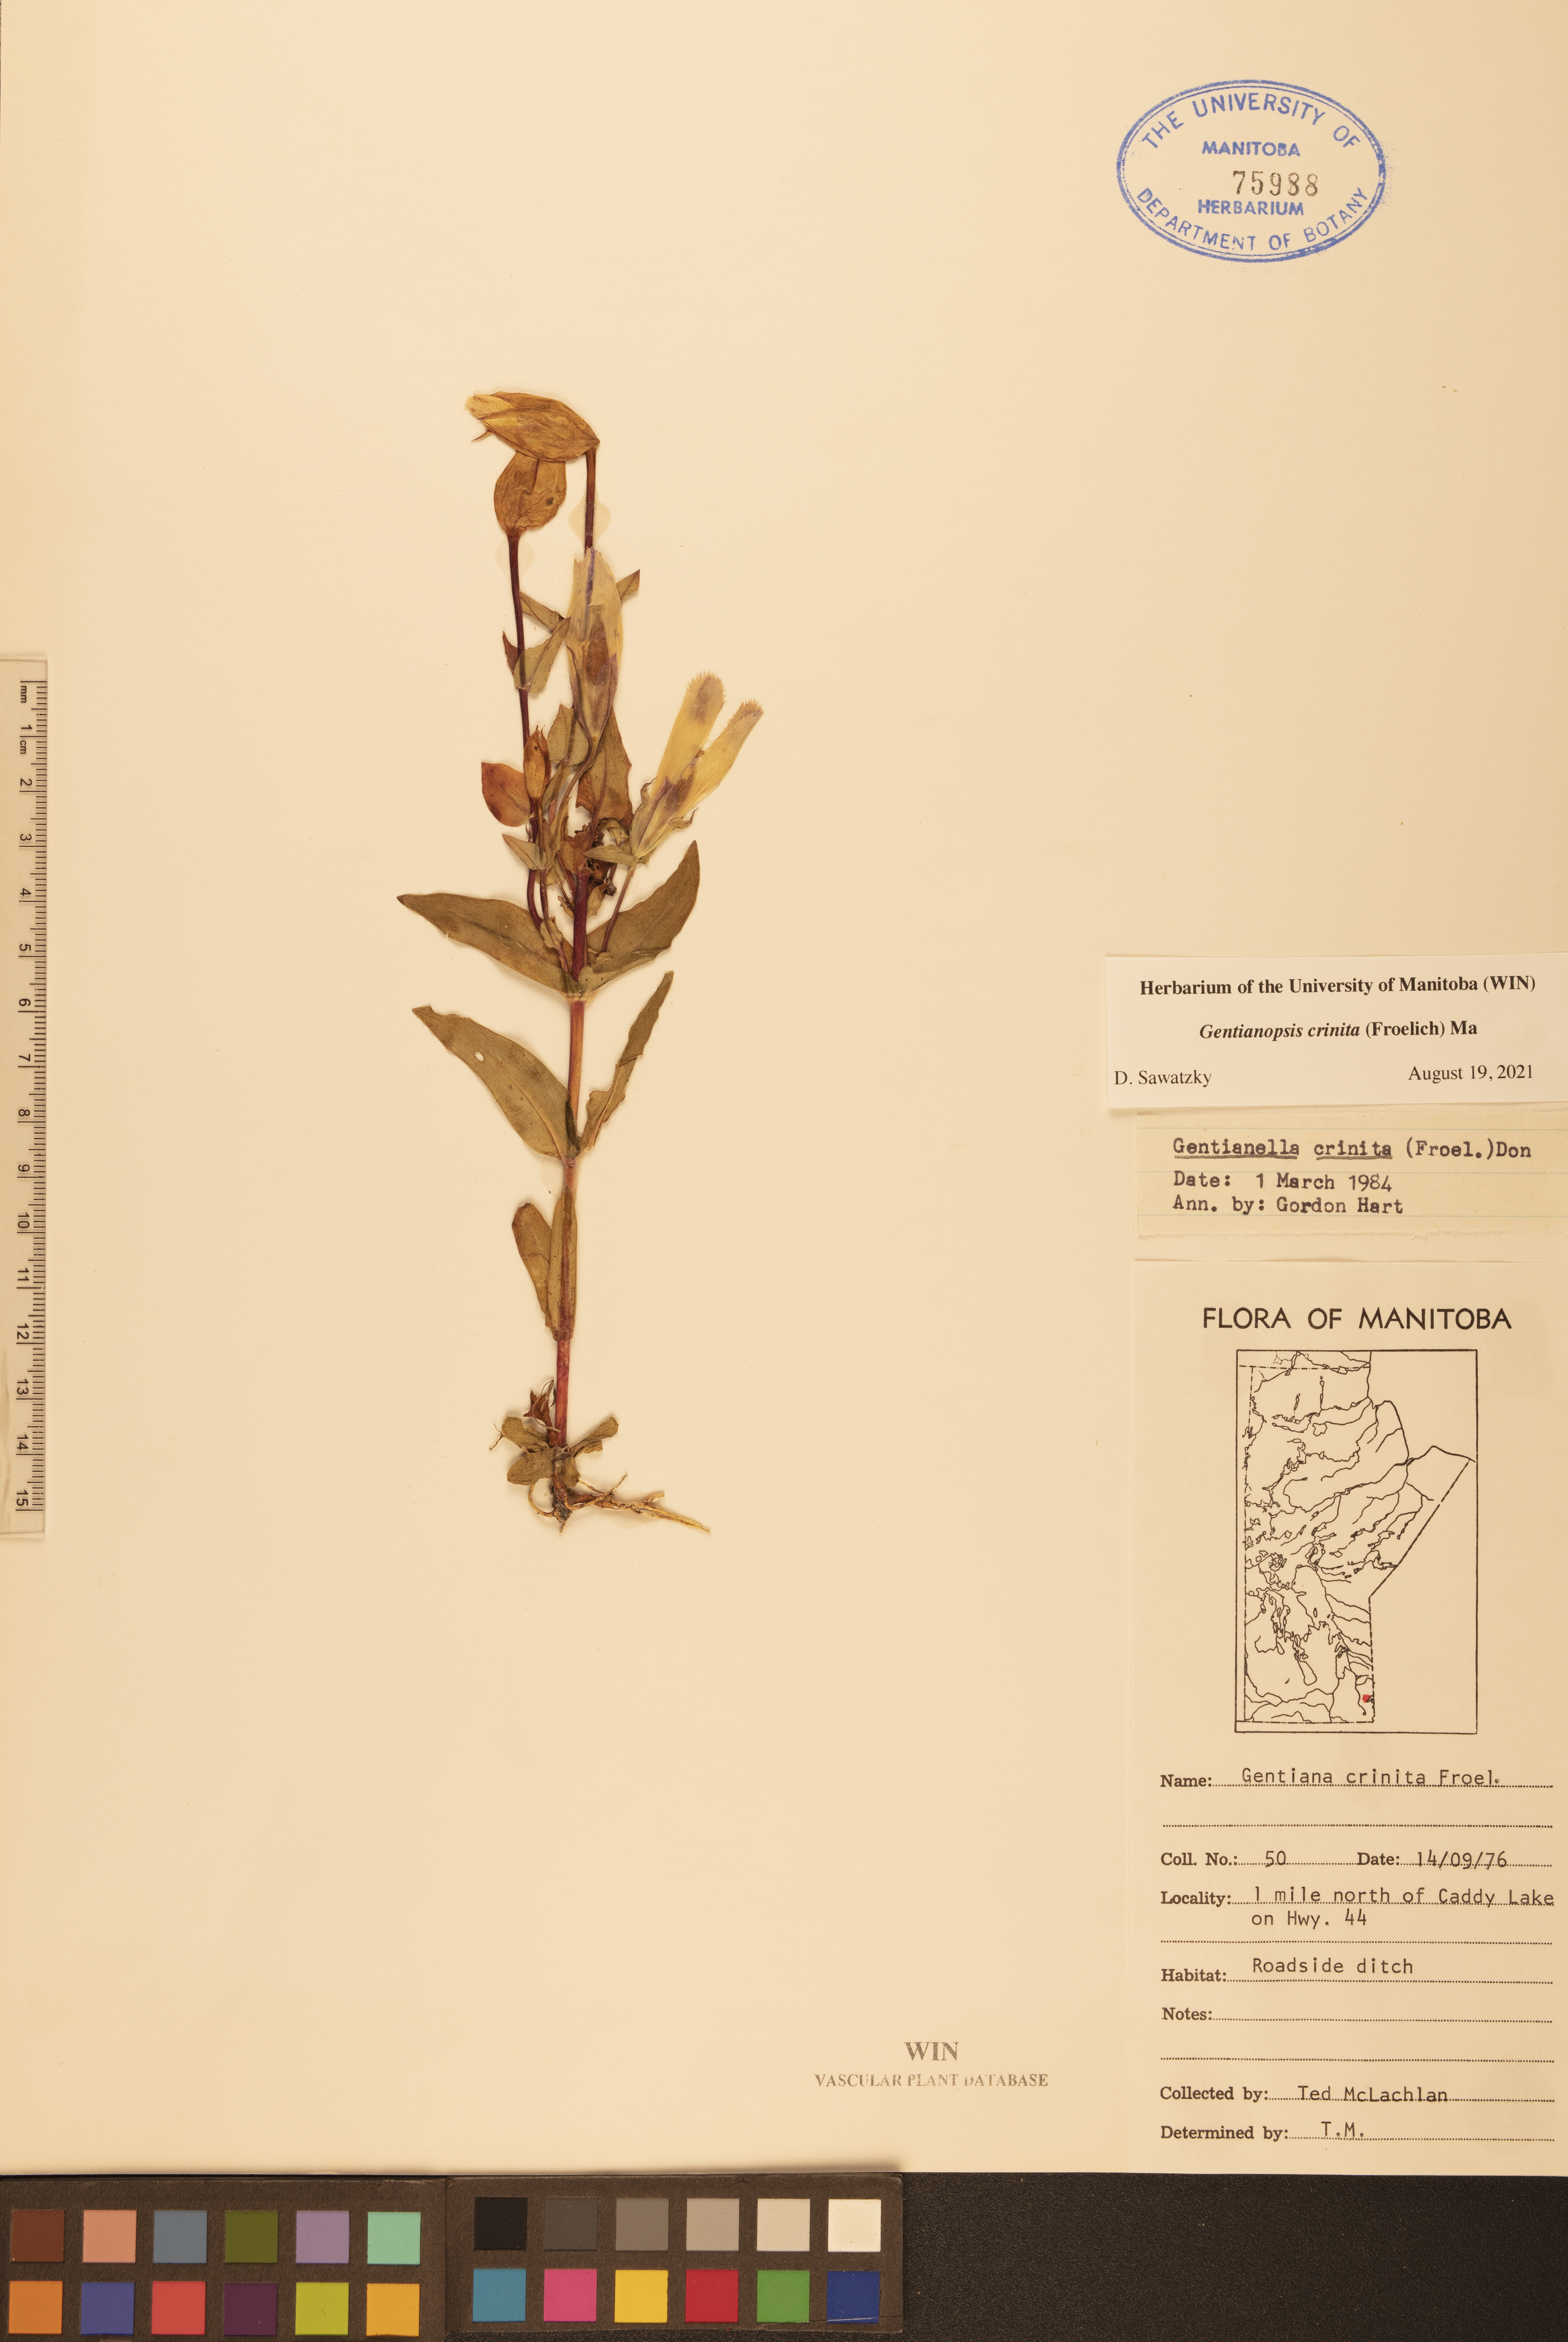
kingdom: Plantae
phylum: Tracheophyta
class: Magnoliopsida
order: Gentianales
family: Gentianaceae
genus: Gentianopsis
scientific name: Gentianopsis crinita
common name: Fringed-gentian
